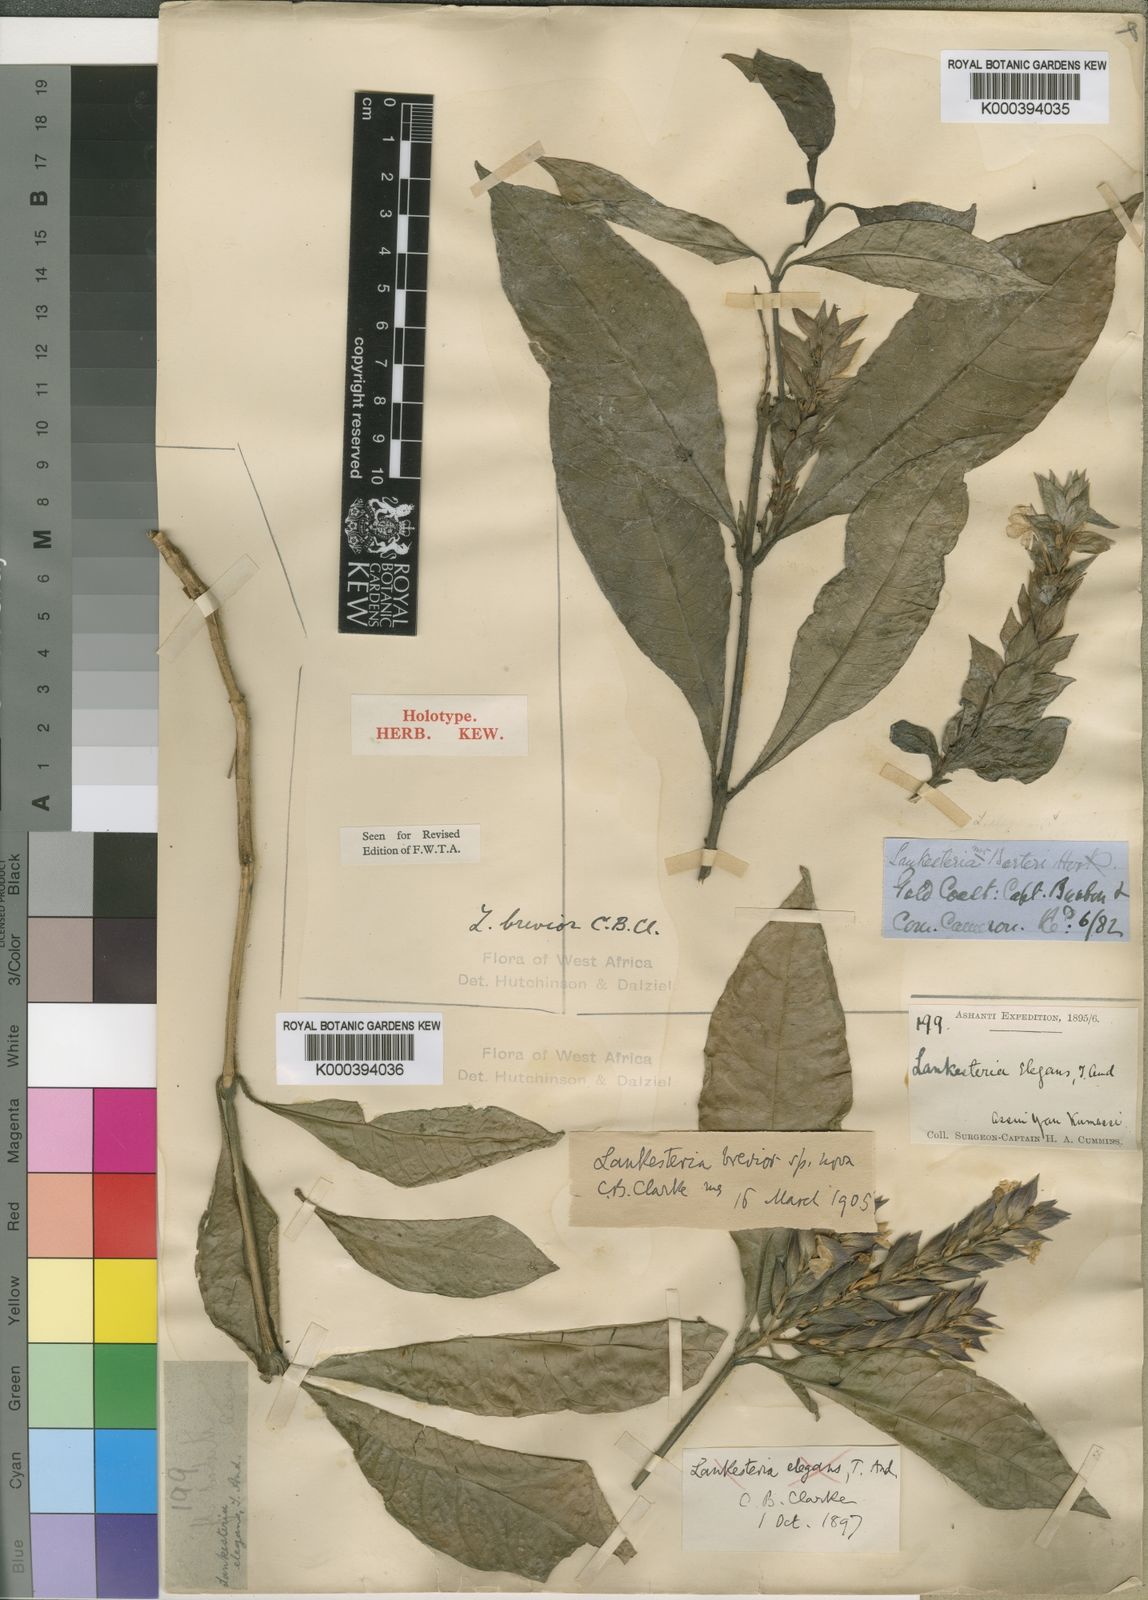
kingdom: Plantae
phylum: Tracheophyta
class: Magnoliopsida
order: Lamiales
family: Acanthaceae
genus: Lankesteria
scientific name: Lankesteria brevior
